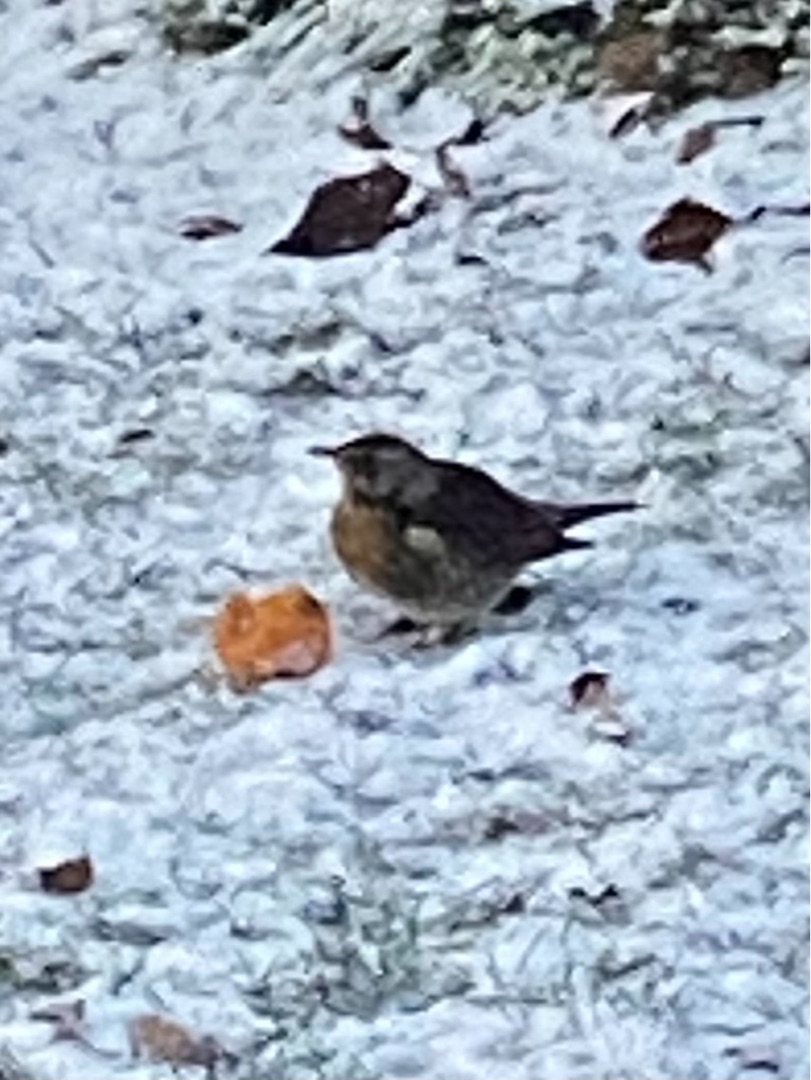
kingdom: Animalia
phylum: Chordata
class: Aves
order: Passeriformes
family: Turdidae
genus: Turdus
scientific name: Turdus pilaris
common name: Sjagger
